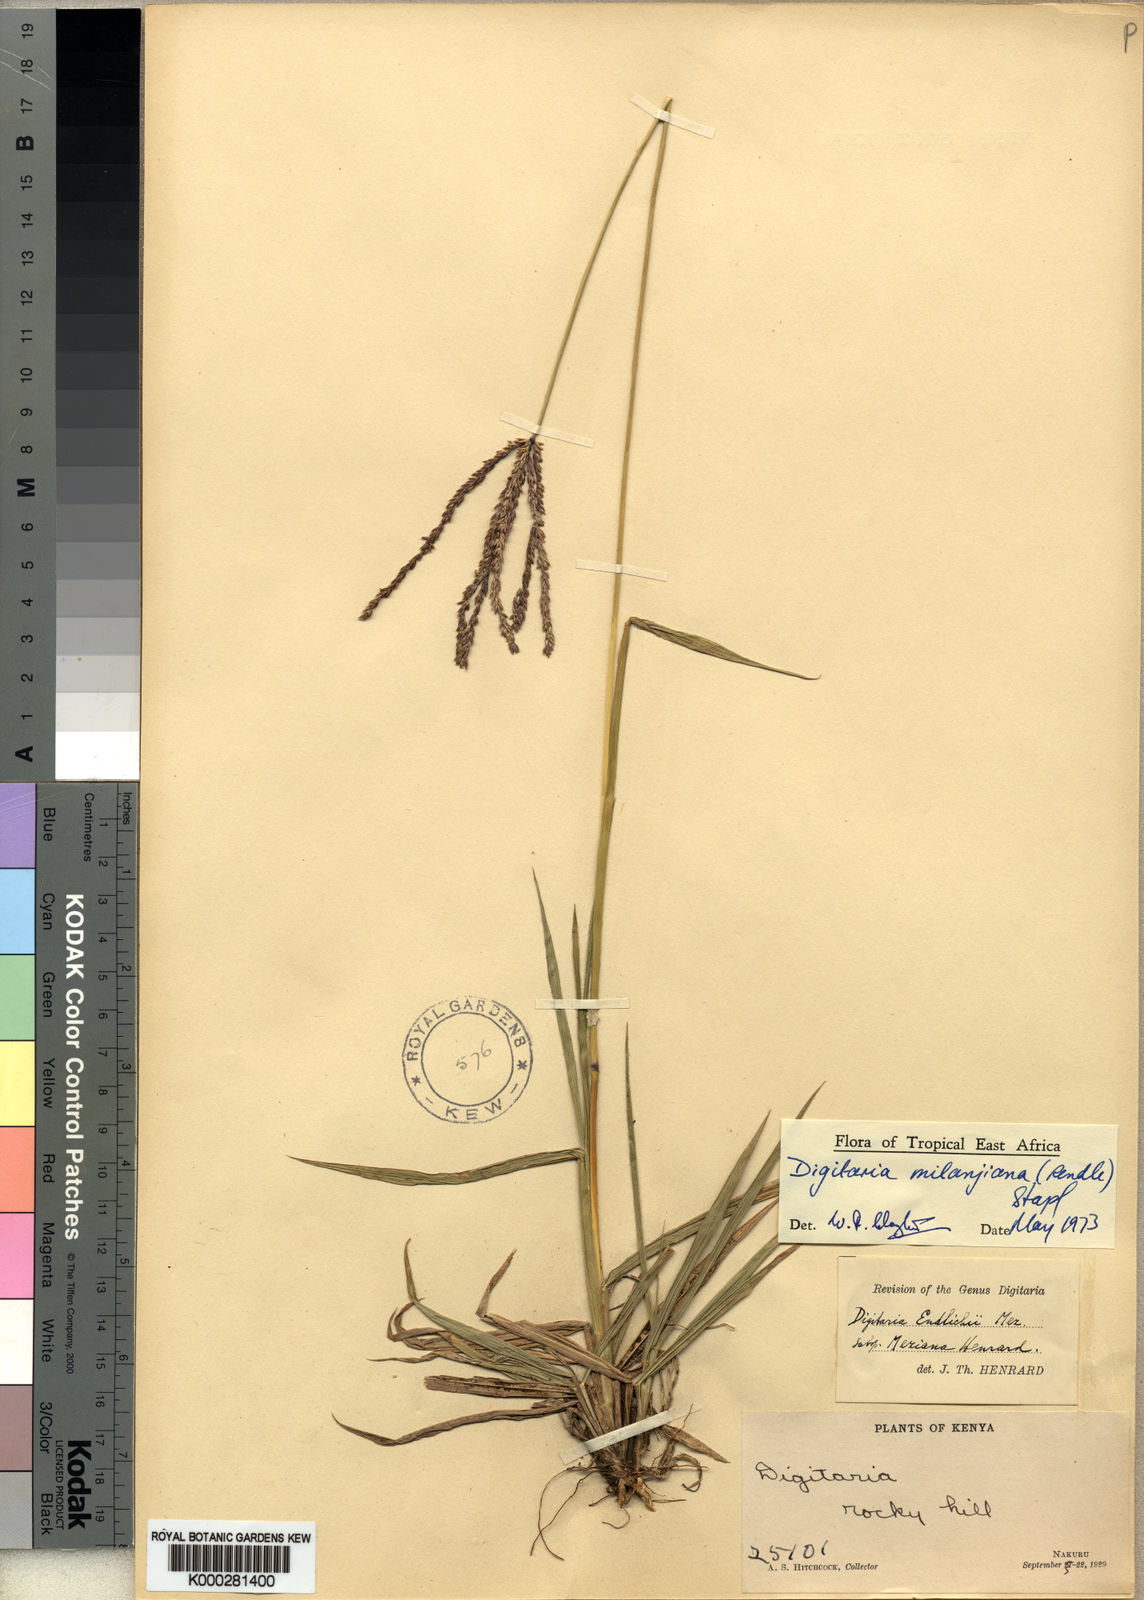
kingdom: Plantae
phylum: Tracheophyta
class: Liliopsida
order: Poales
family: Poaceae
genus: Digitaria
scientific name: Digitaria milanjiana
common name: Madagascar crabgrass
